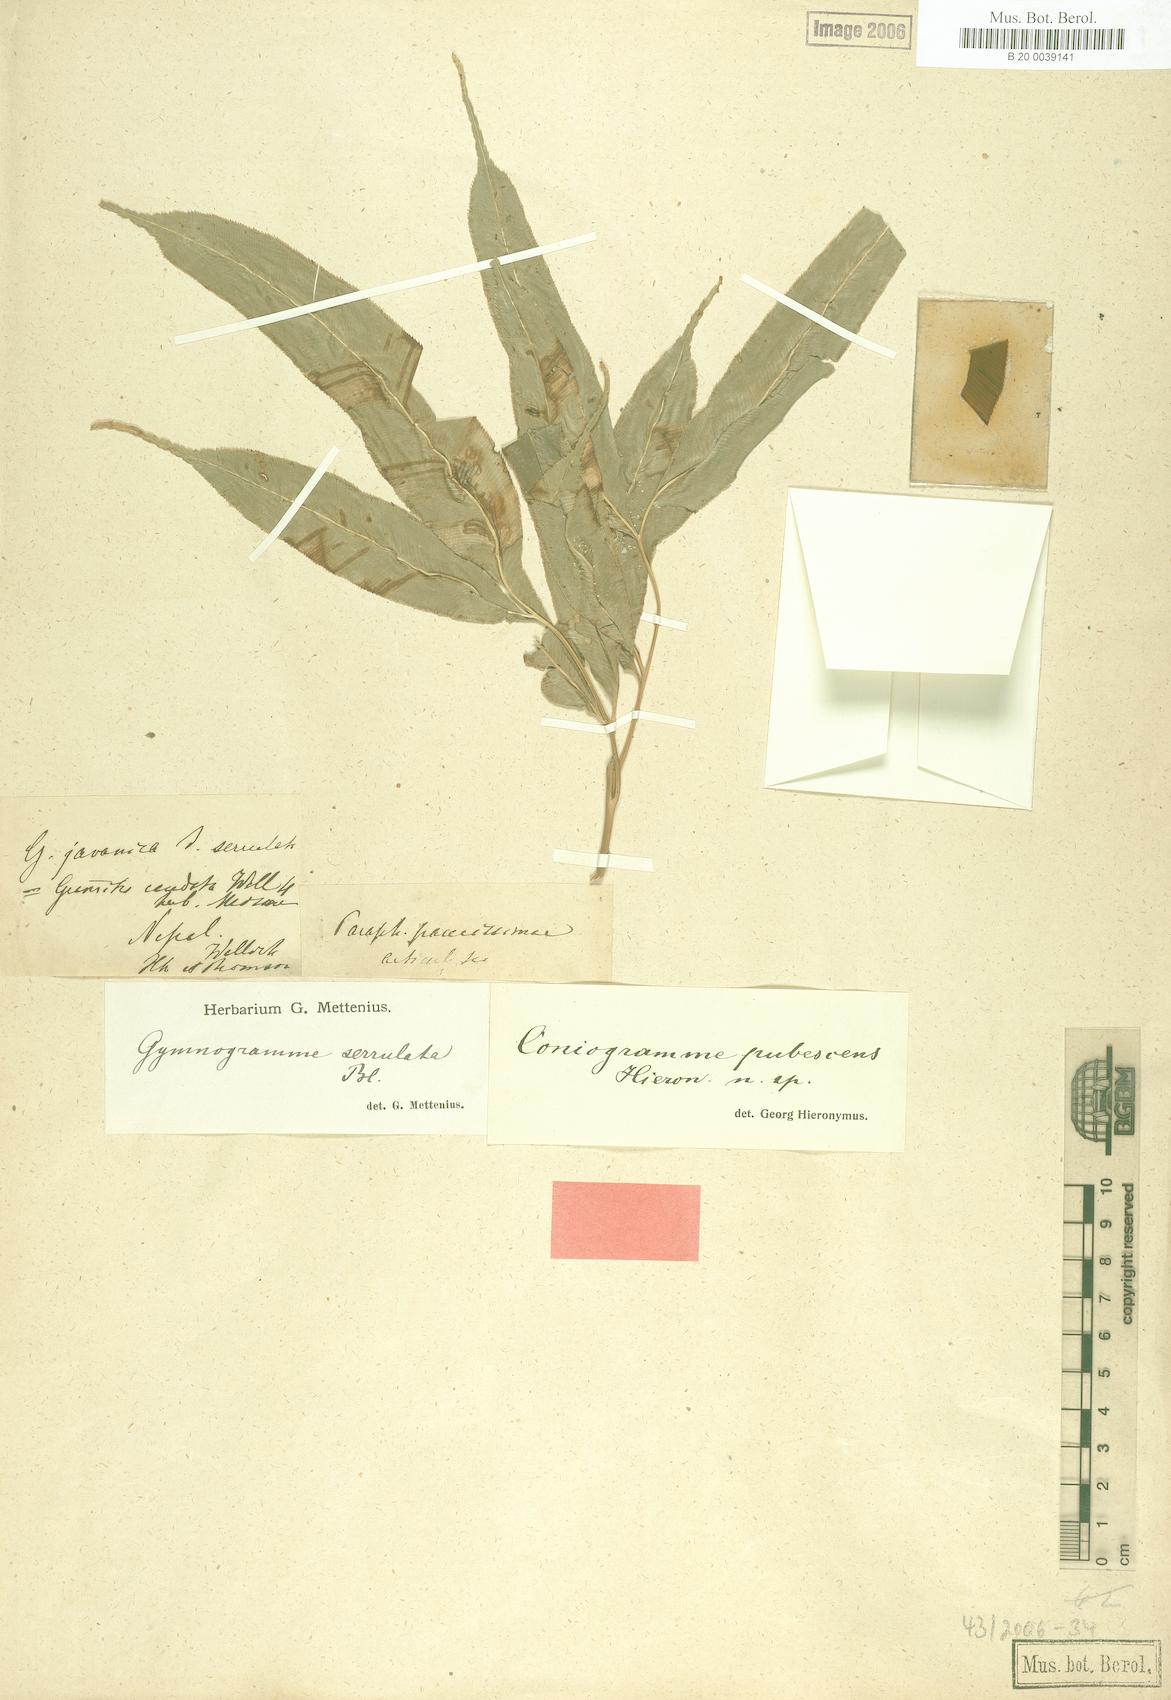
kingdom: Plantae
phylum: Tracheophyta
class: Polypodiopsida
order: Polypodiales
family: Pteridaceae
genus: Coniogramme
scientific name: Coniogramme pubescens
